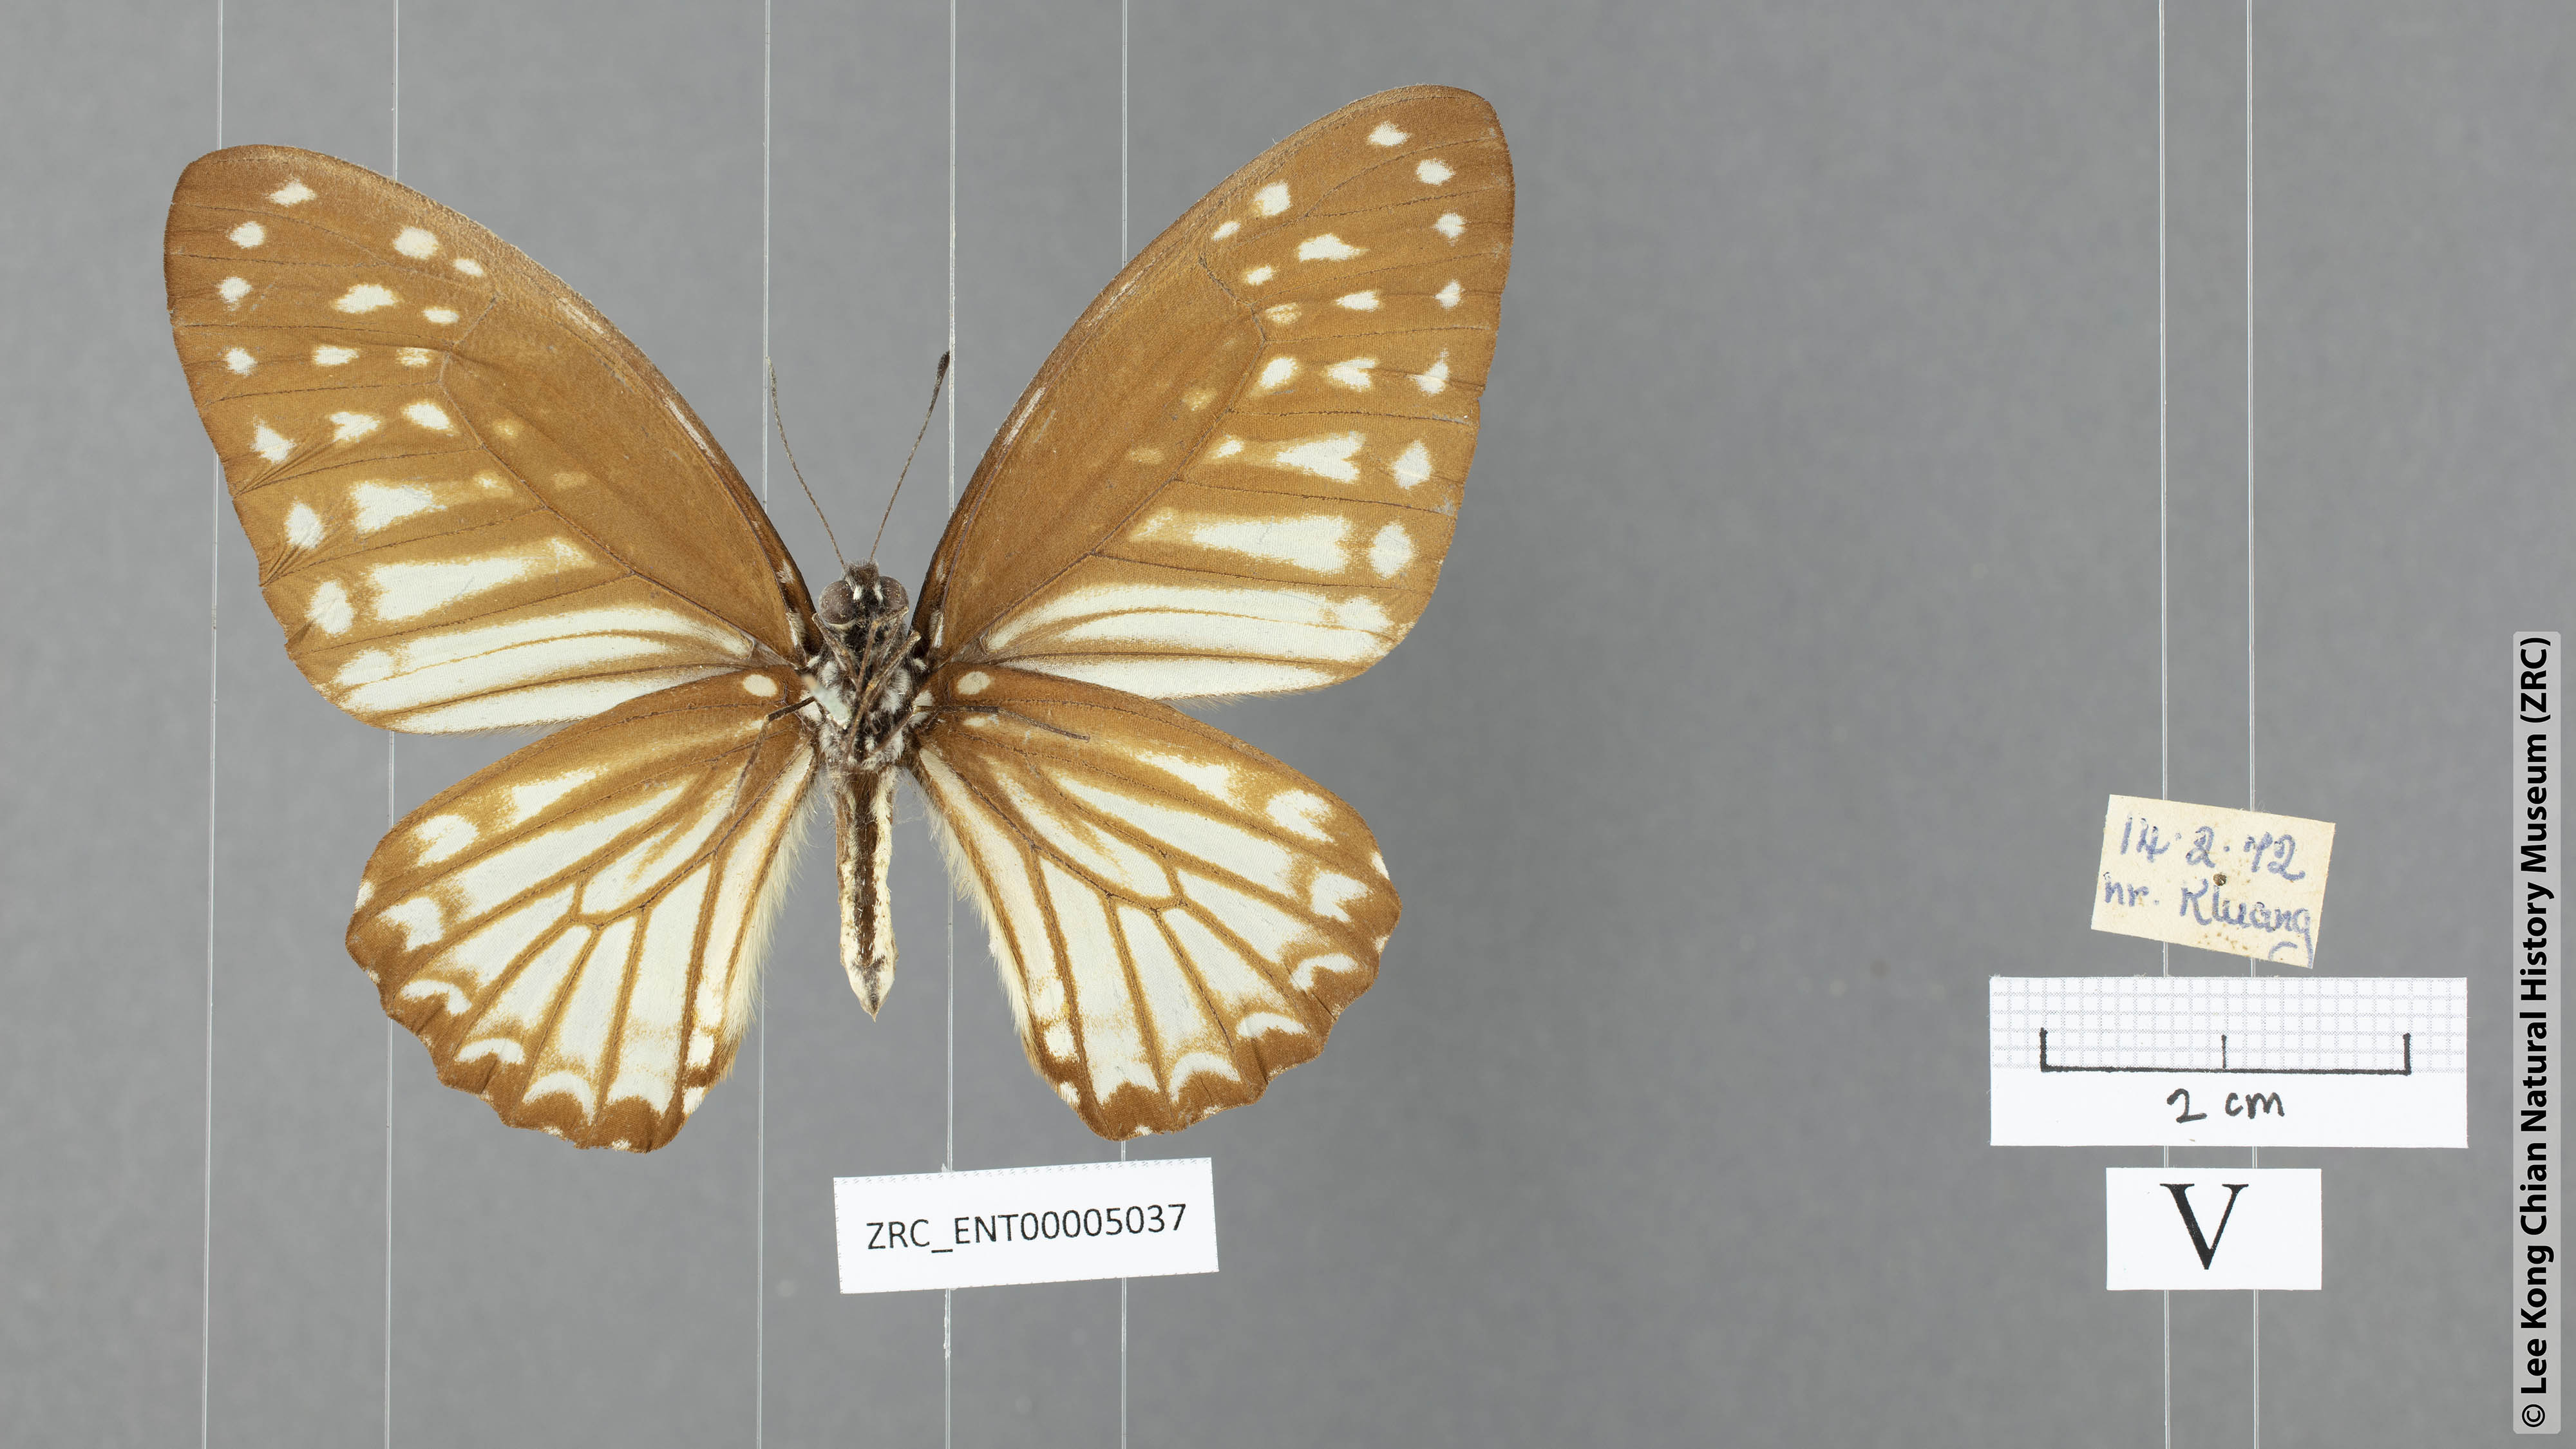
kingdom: Animalia
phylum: Arthropoda
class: Insecta
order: Lepidoptera
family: Papilionidae
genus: Graphium
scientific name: Graphium ramaceus
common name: Pendlebury's zebra
